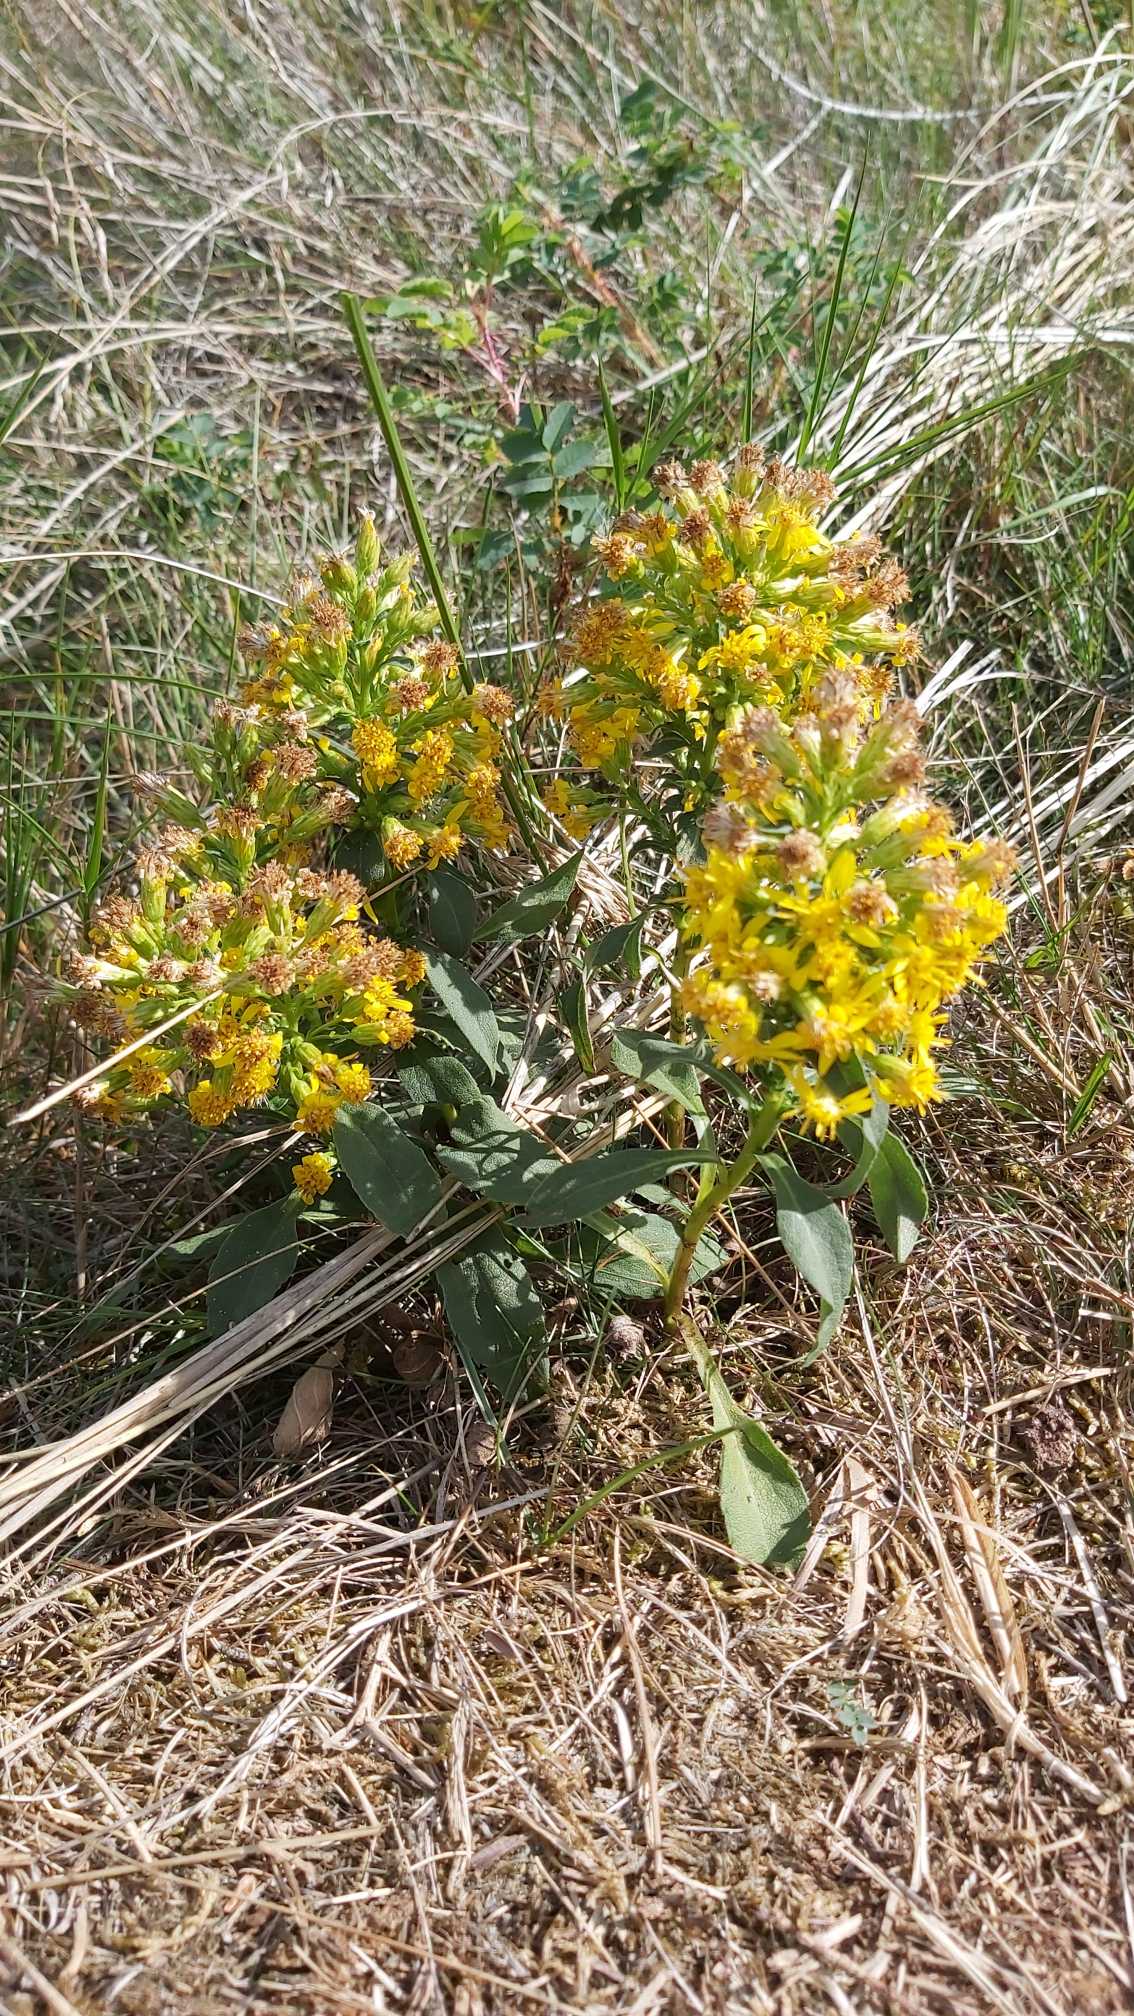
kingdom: Plantae
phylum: Tracheophyta
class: Magnoliopsida
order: Asterales
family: Asteraceae
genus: Solidago
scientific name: Solidago virgaurea
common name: Almindelig gyldenris
